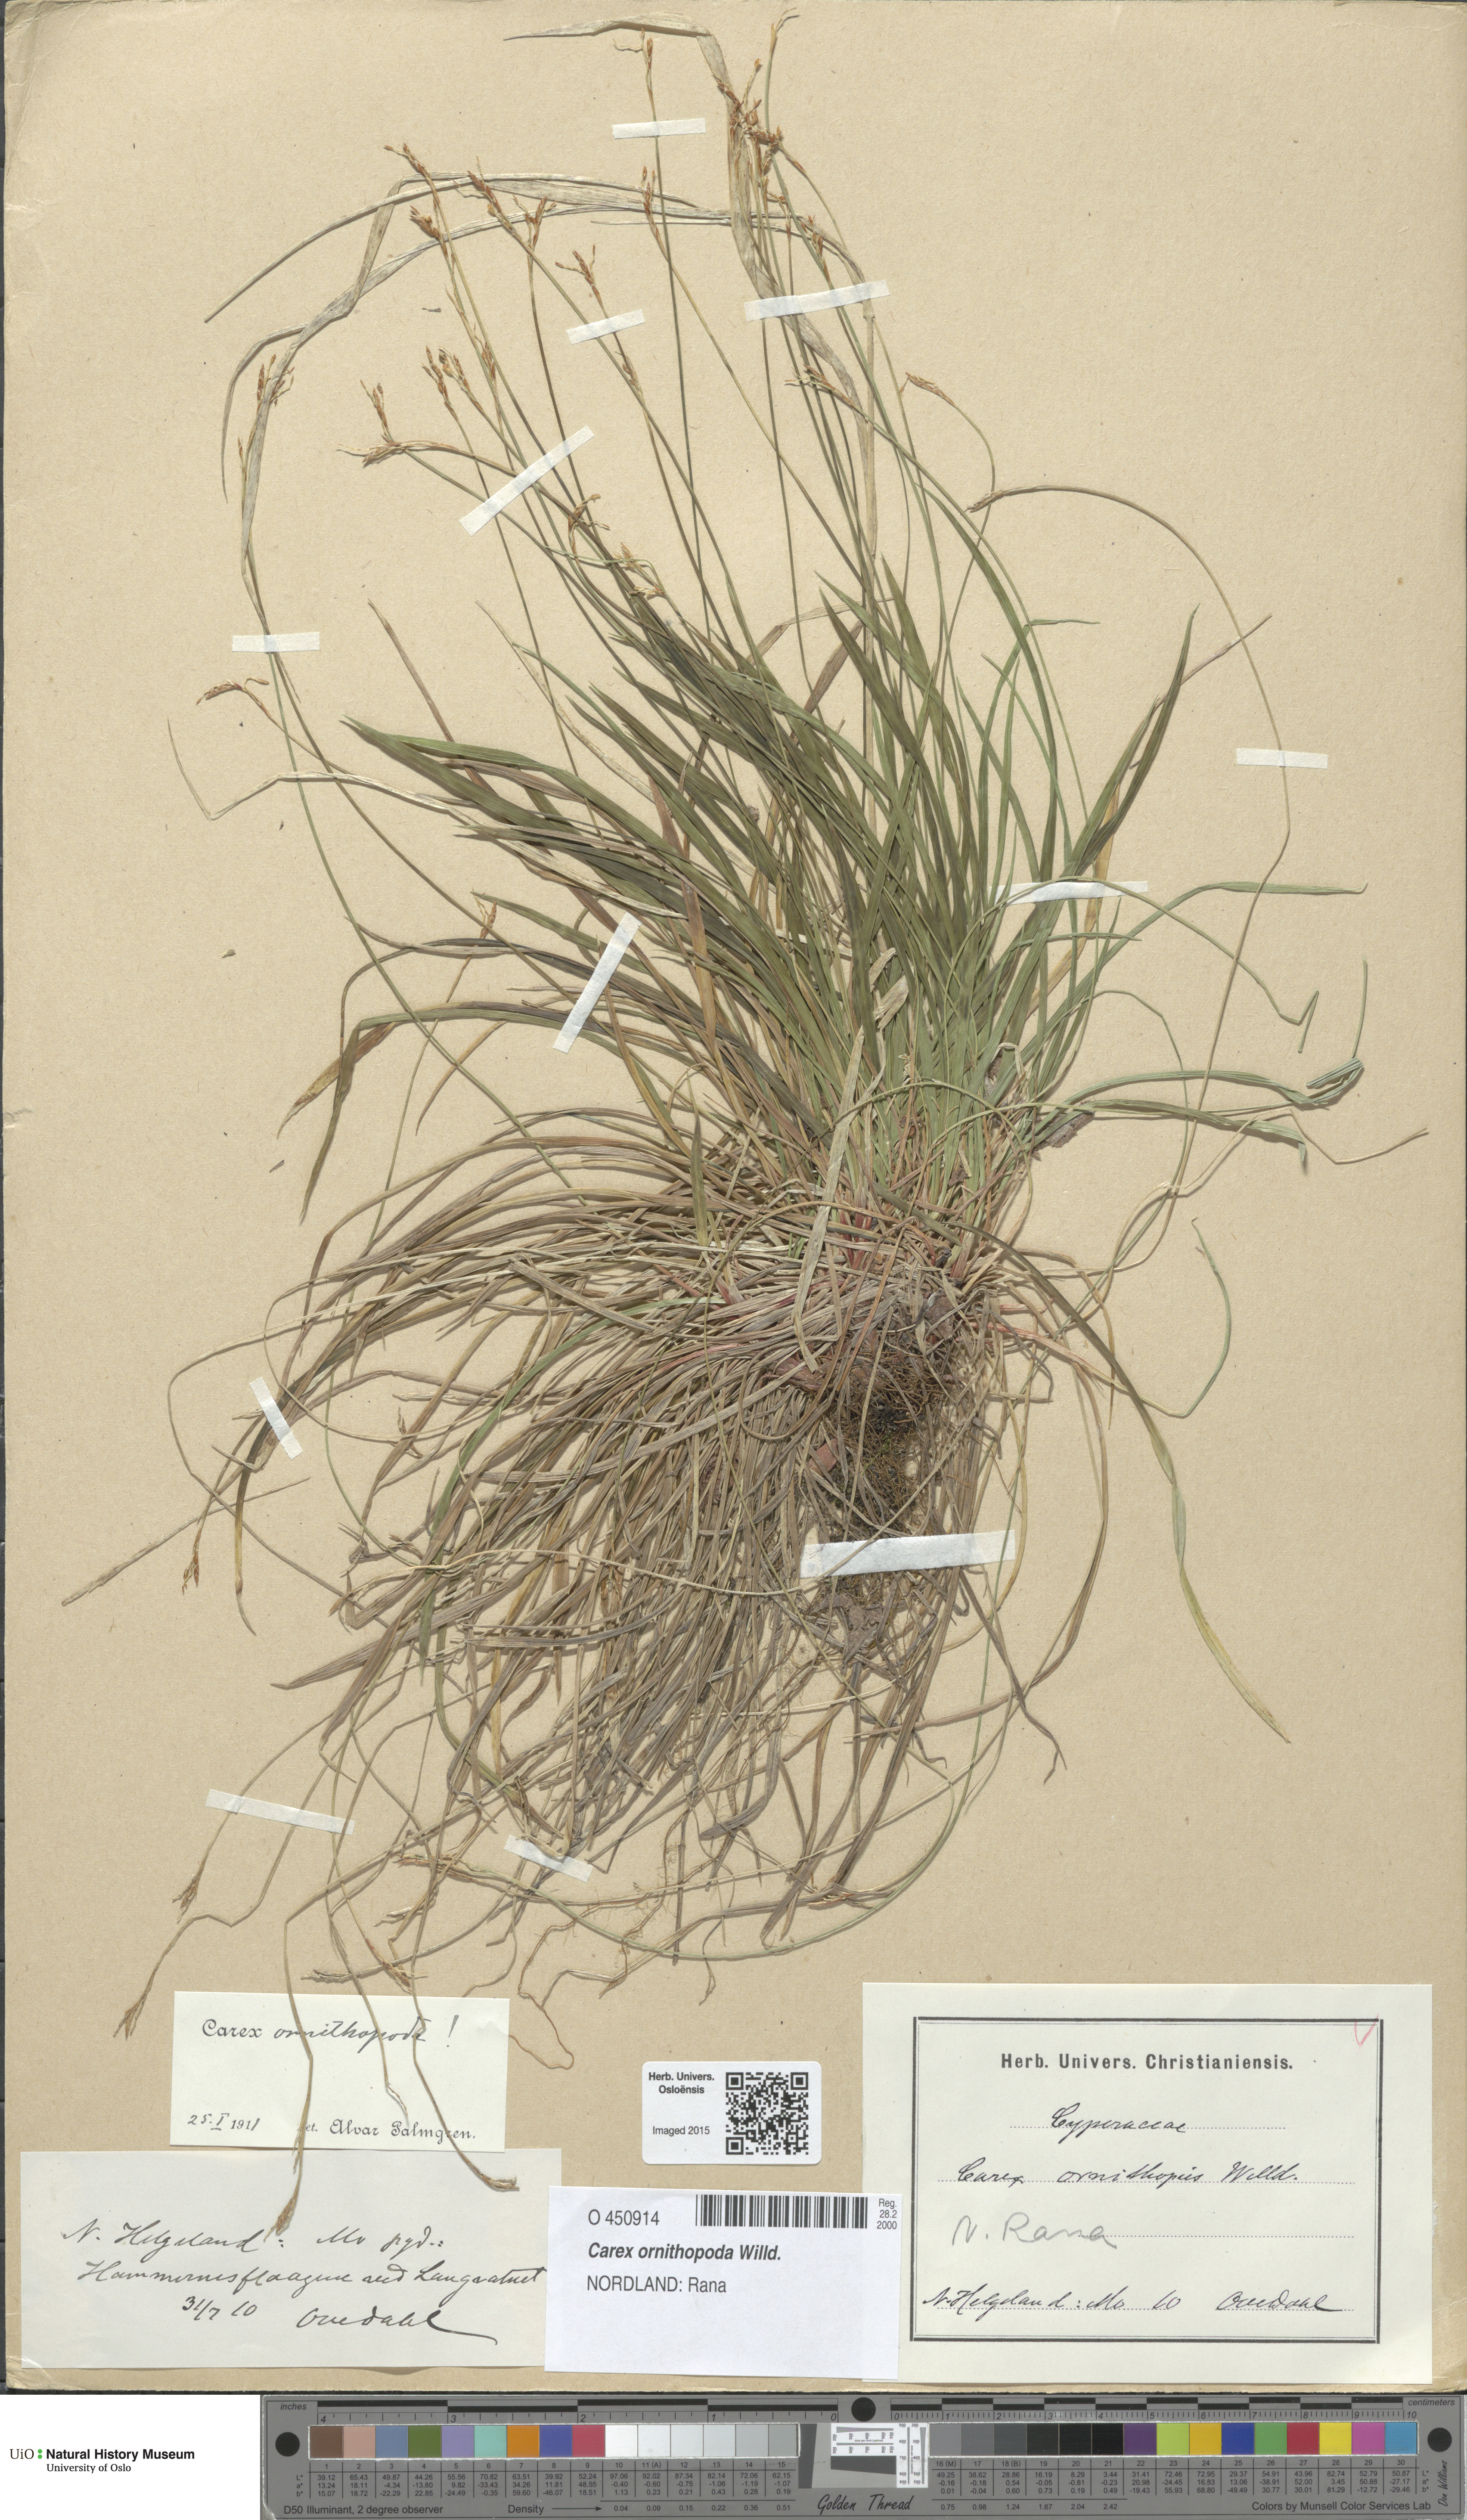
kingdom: Plantae
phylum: Tracheophyta
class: Liliopsida
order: Poales
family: Cyperaceae
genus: Carex
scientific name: Carex ornithopoda
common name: Bird's-foot sedge
